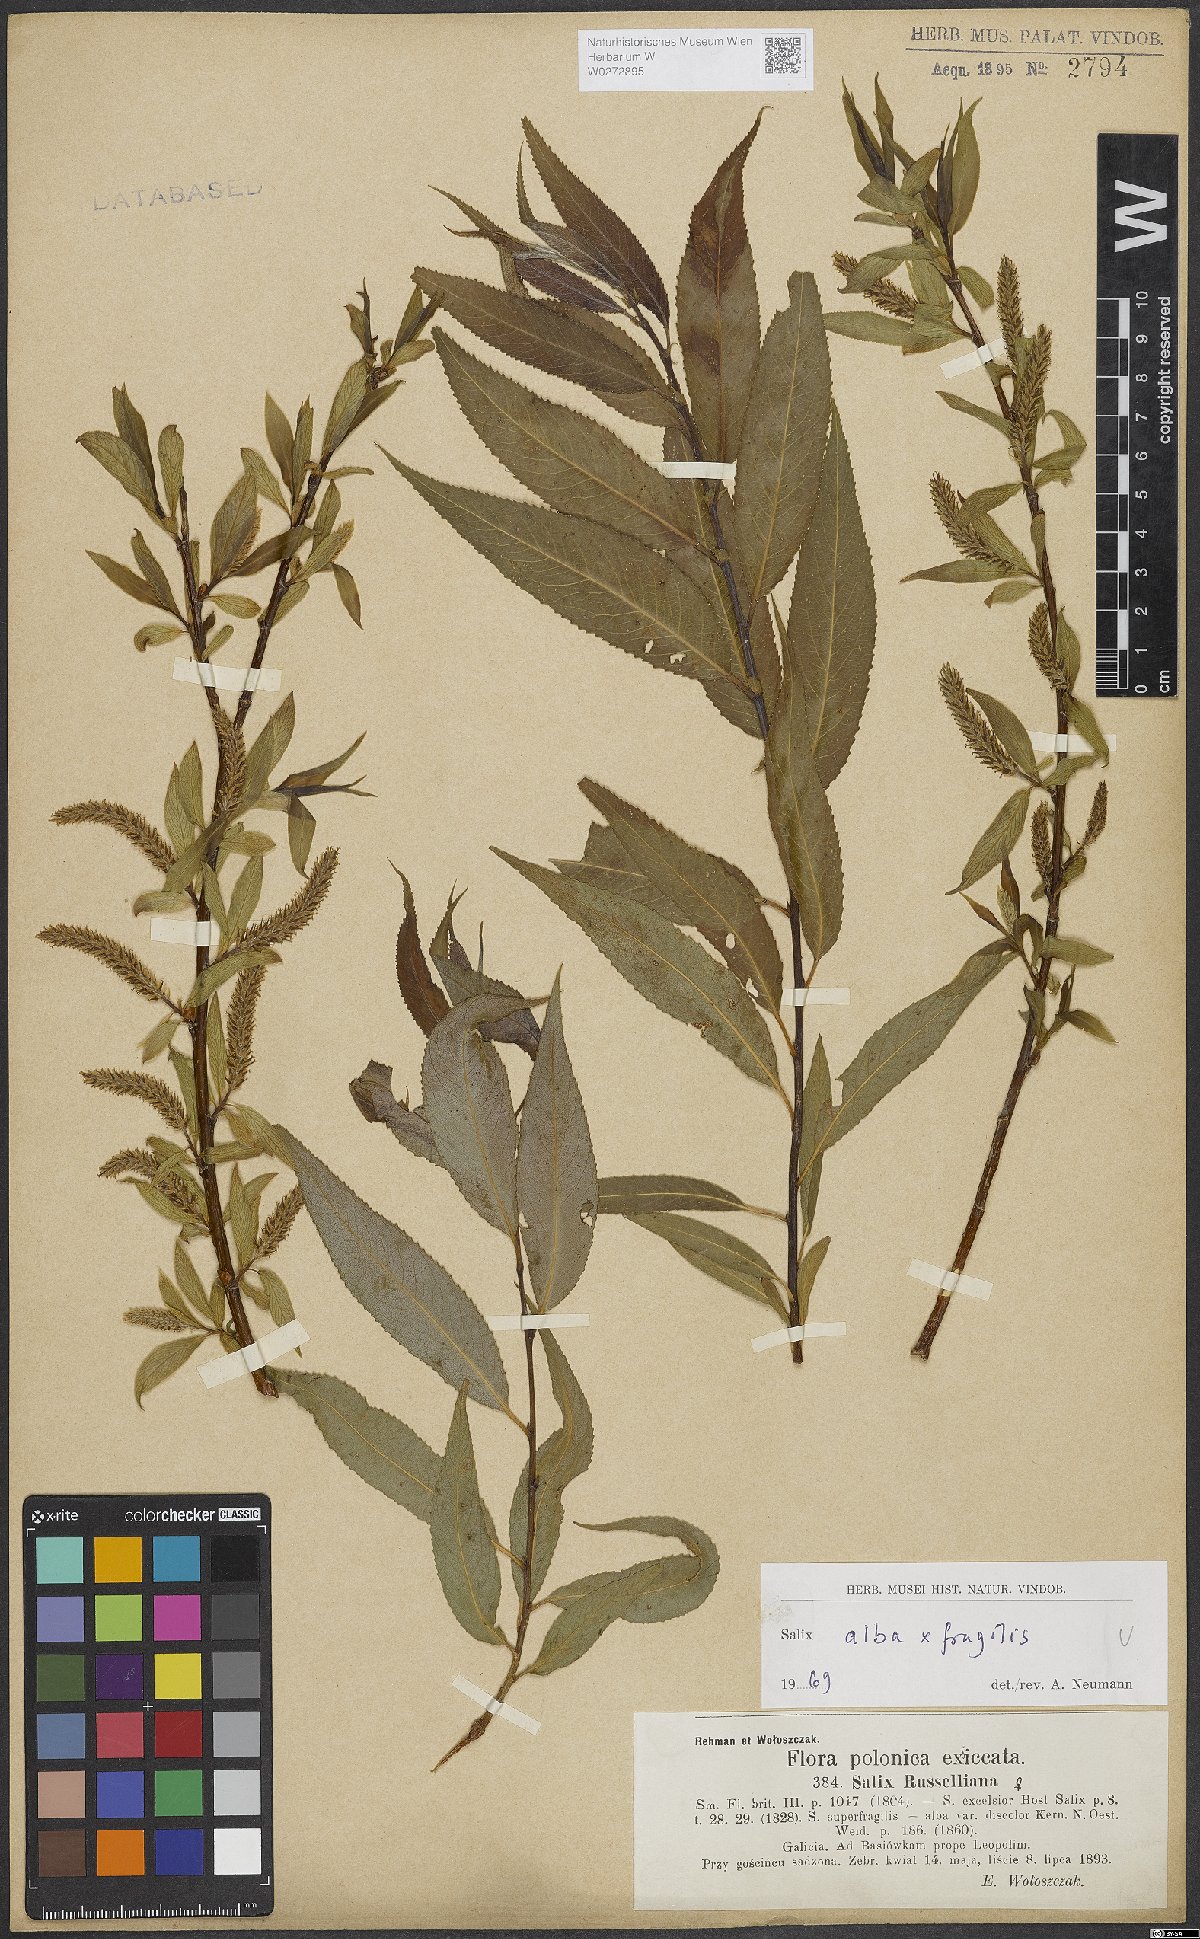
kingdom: Plantae
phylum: Tracheophyta
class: Magnoliopsida
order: Malpighiales
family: Salicaceae
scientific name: Salicaceae
